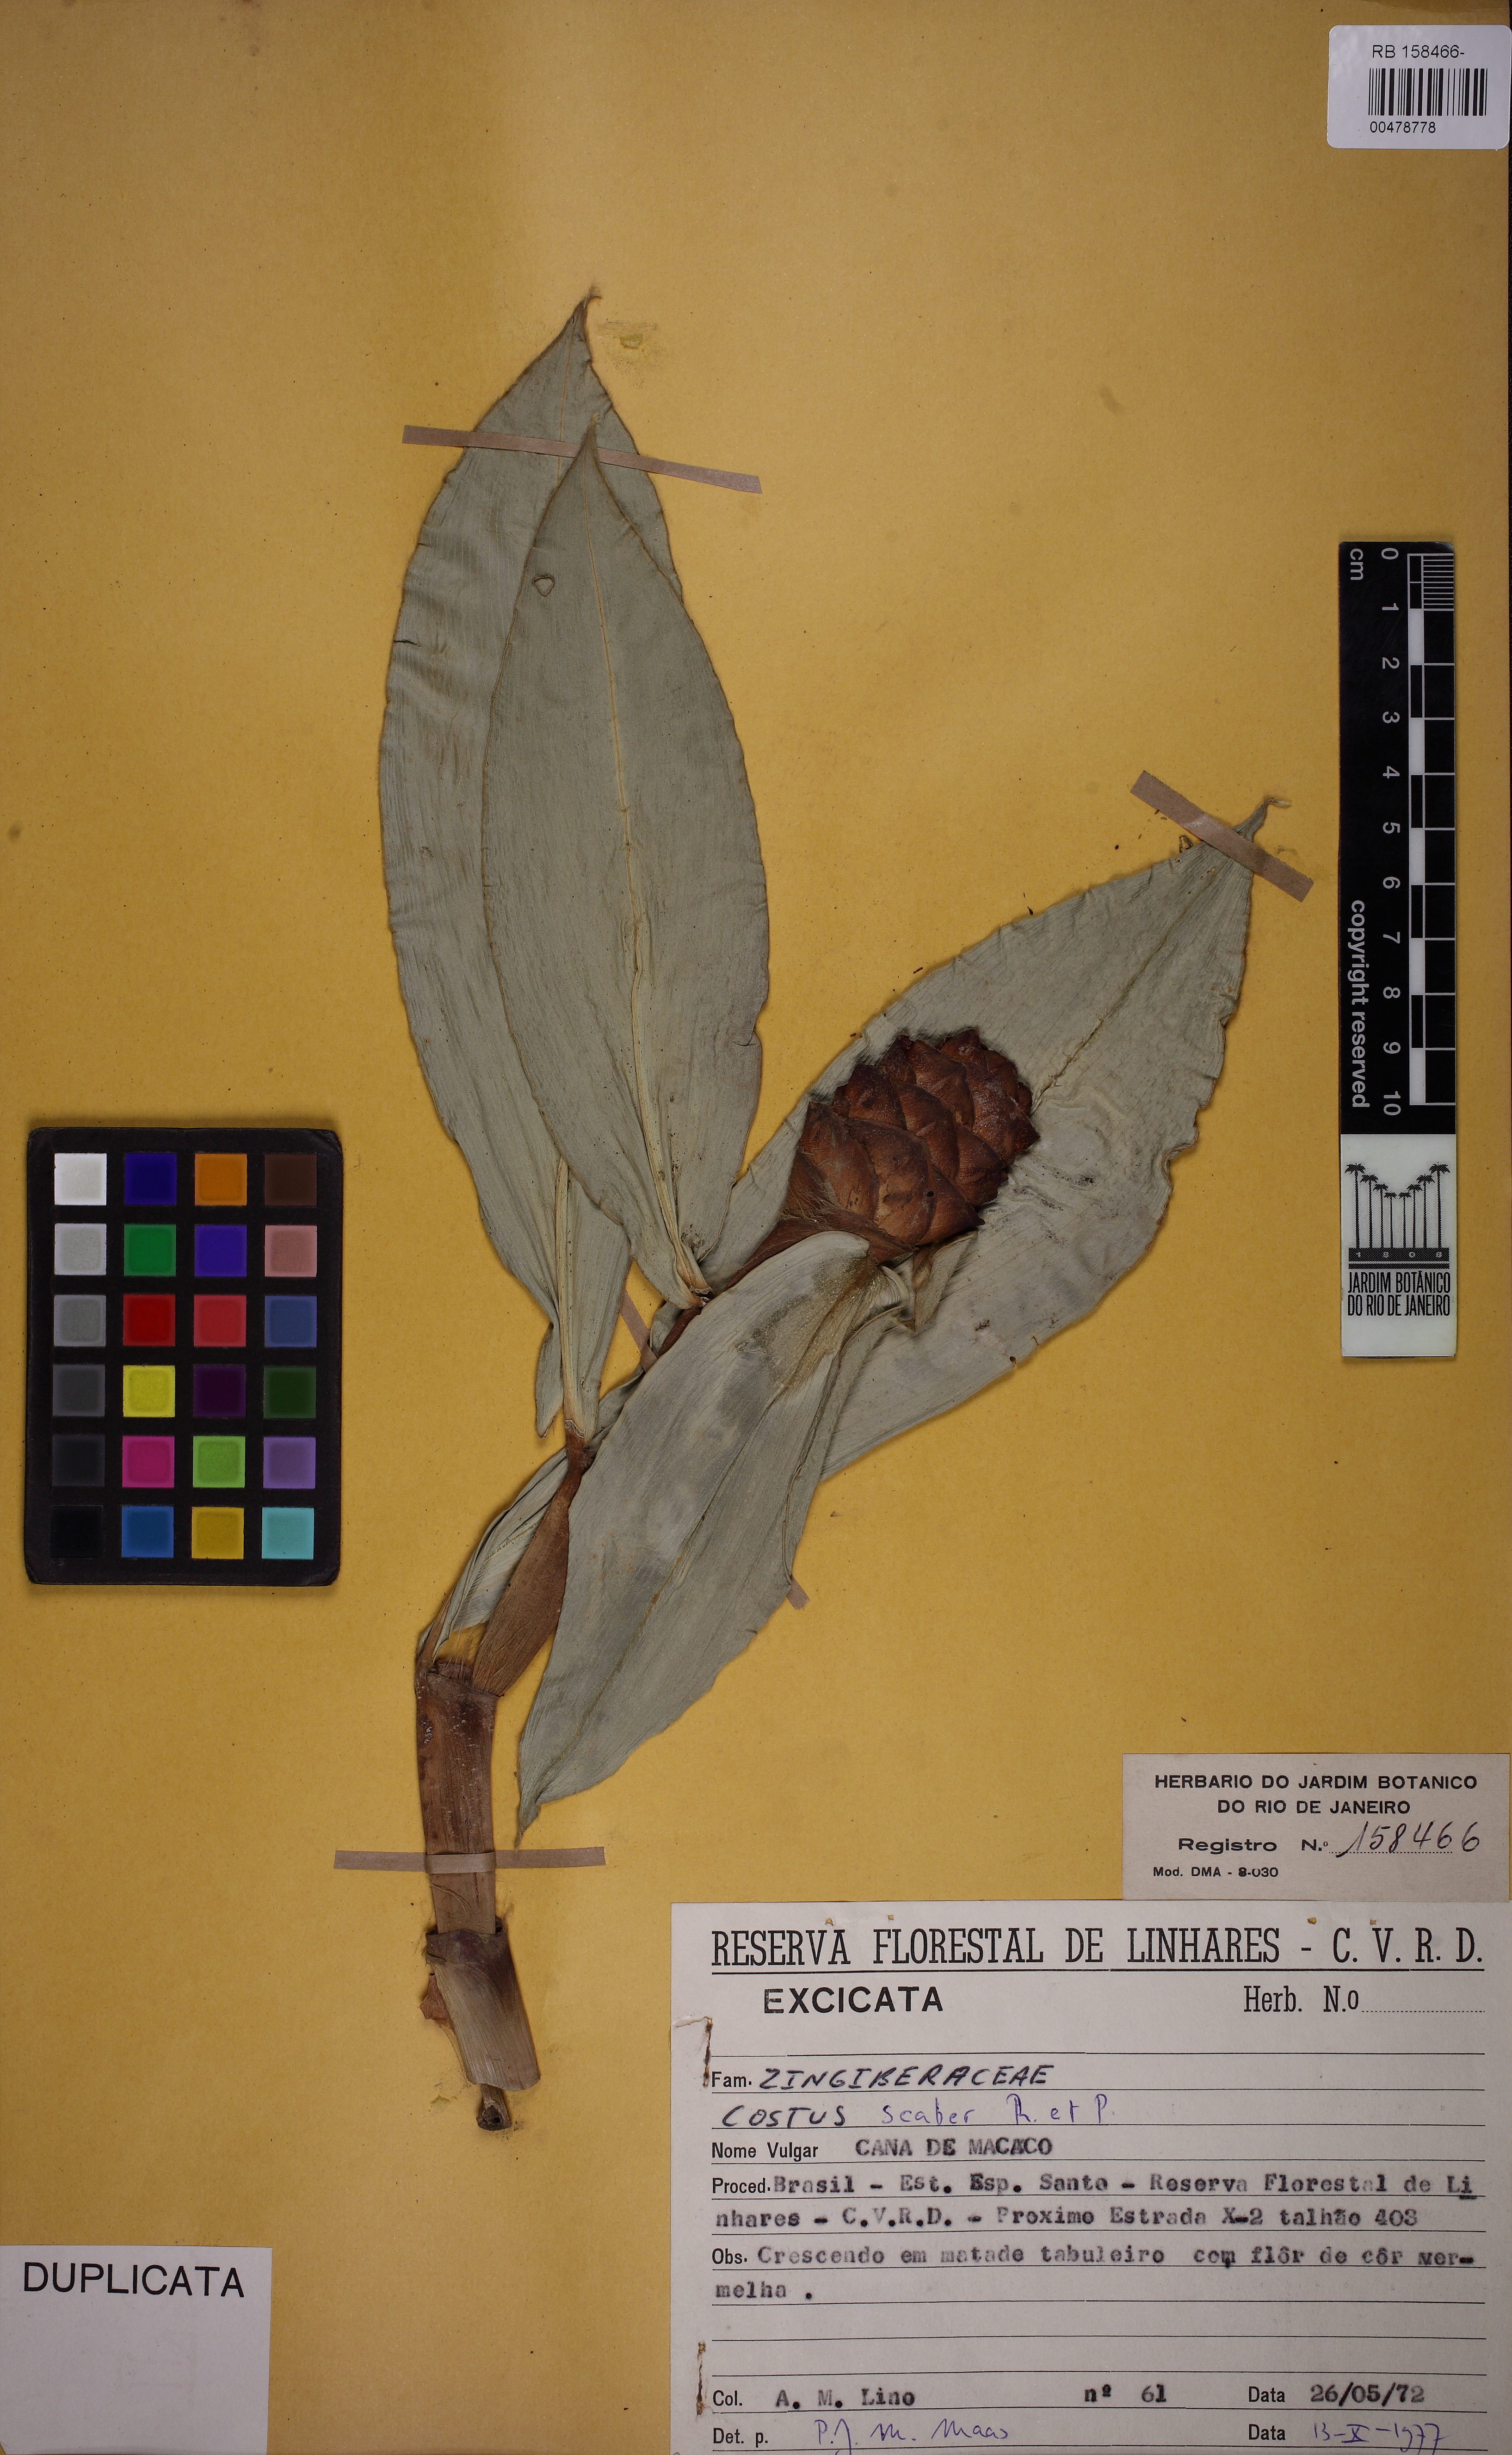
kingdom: Plantae
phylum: Tracheophyta
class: Liliopsida
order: Zingiberales
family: Costaceae
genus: Costus
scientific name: Costus scaber
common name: Spiral head ginger
